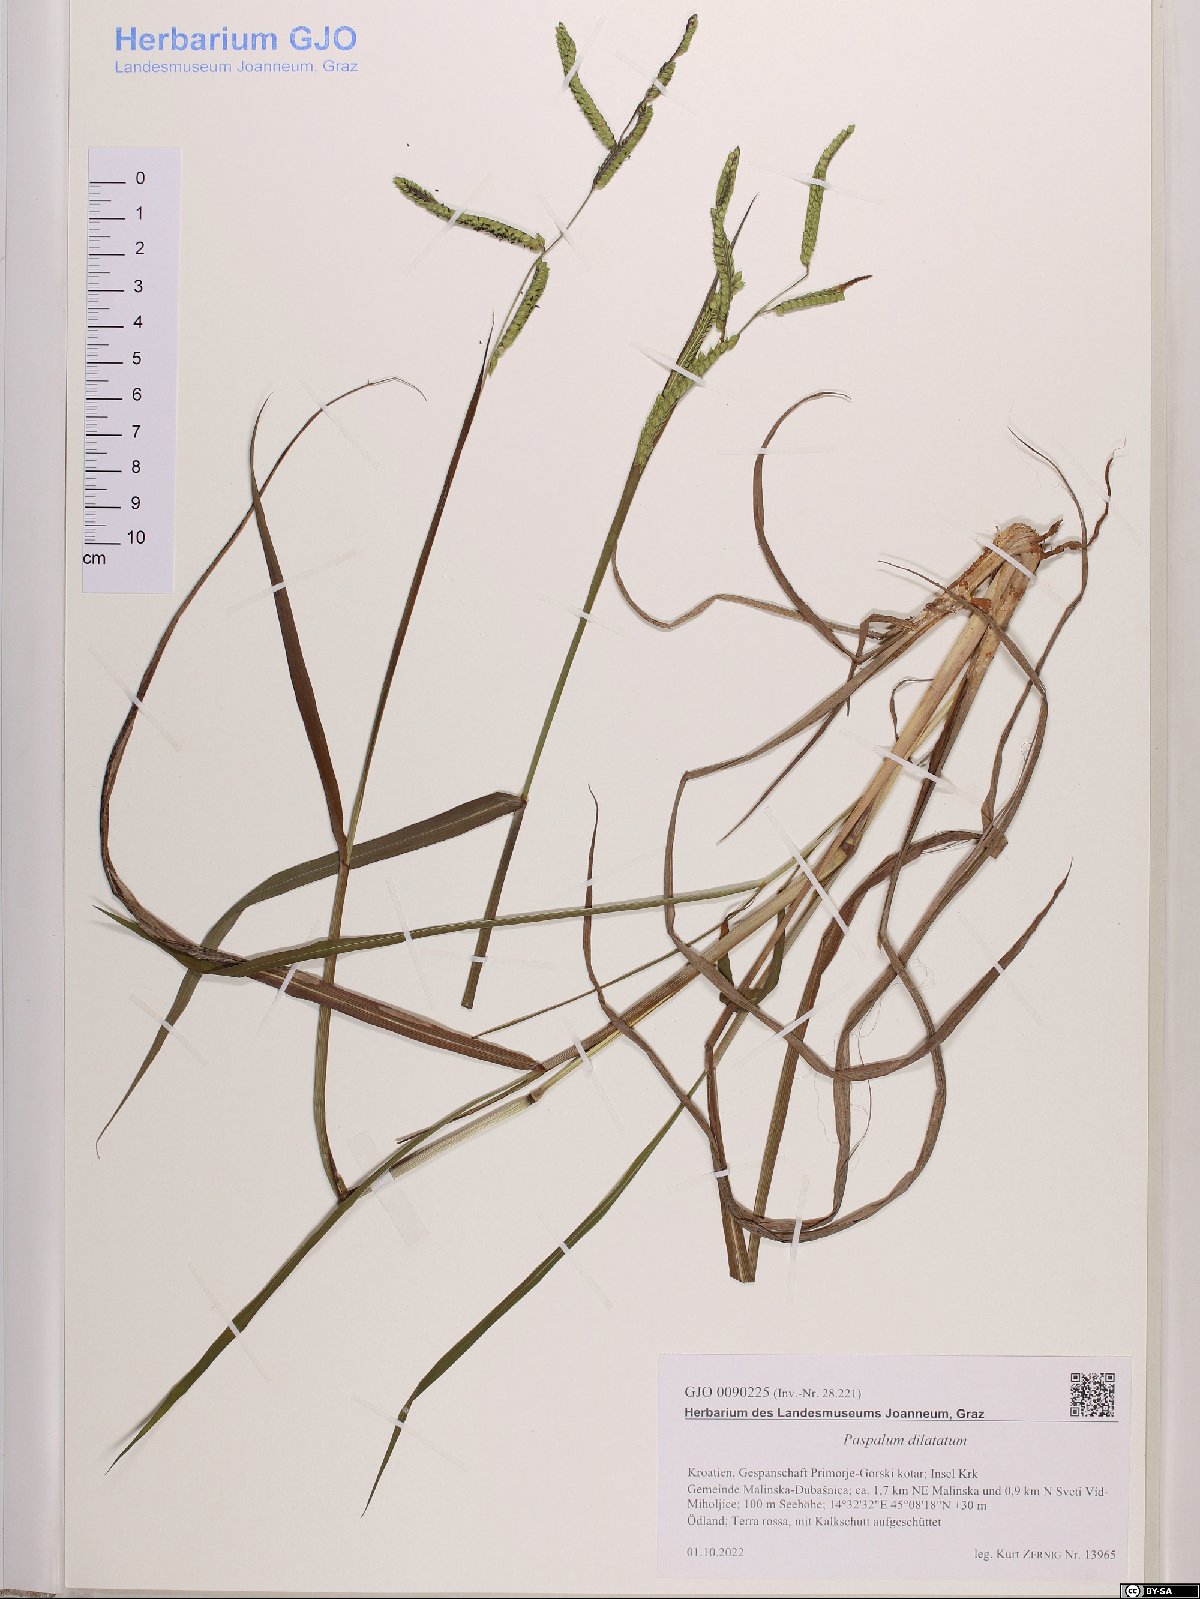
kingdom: Plantae
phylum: Tracheophyta
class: Liliopsida
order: Poales
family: Poaceae
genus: Paspalum
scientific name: Paspalum dilatatum
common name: Dallisgrass
